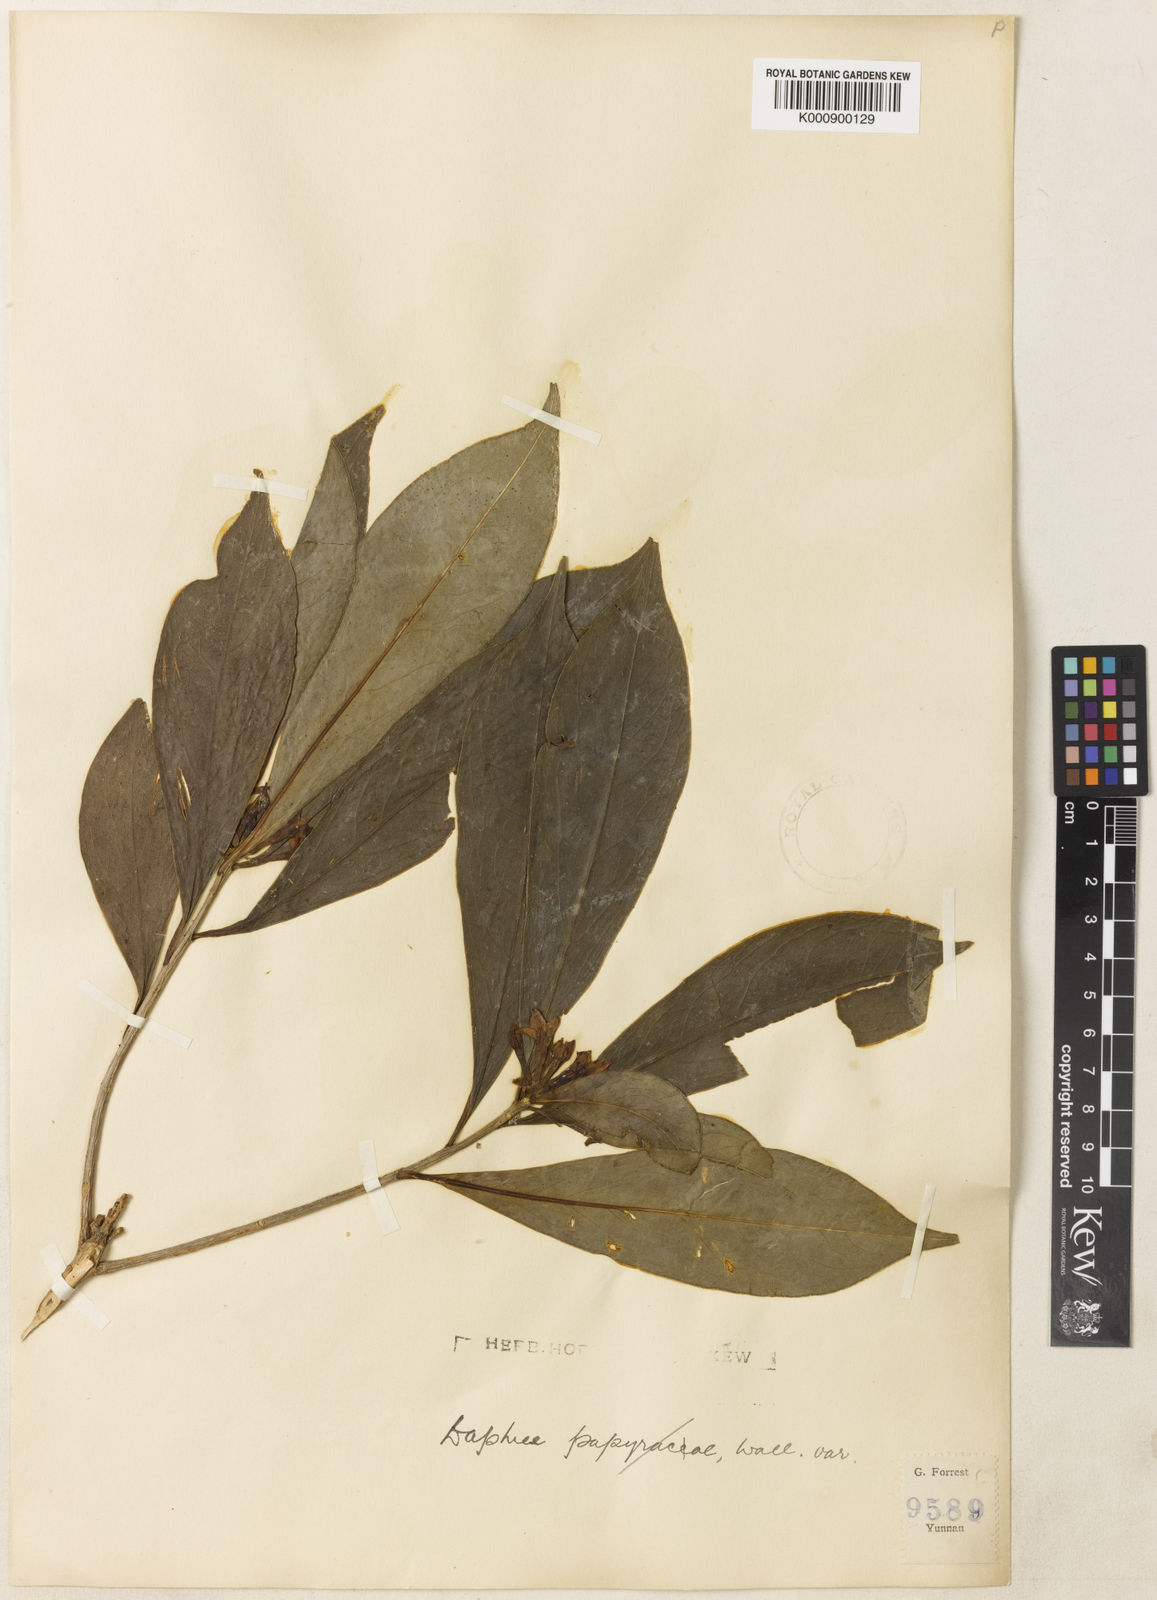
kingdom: Plantae
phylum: Tracheophyta
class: Magnoliopsida
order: Malvales
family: Thymelaeaceae
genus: Daphne
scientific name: Daphne yunnanensis
